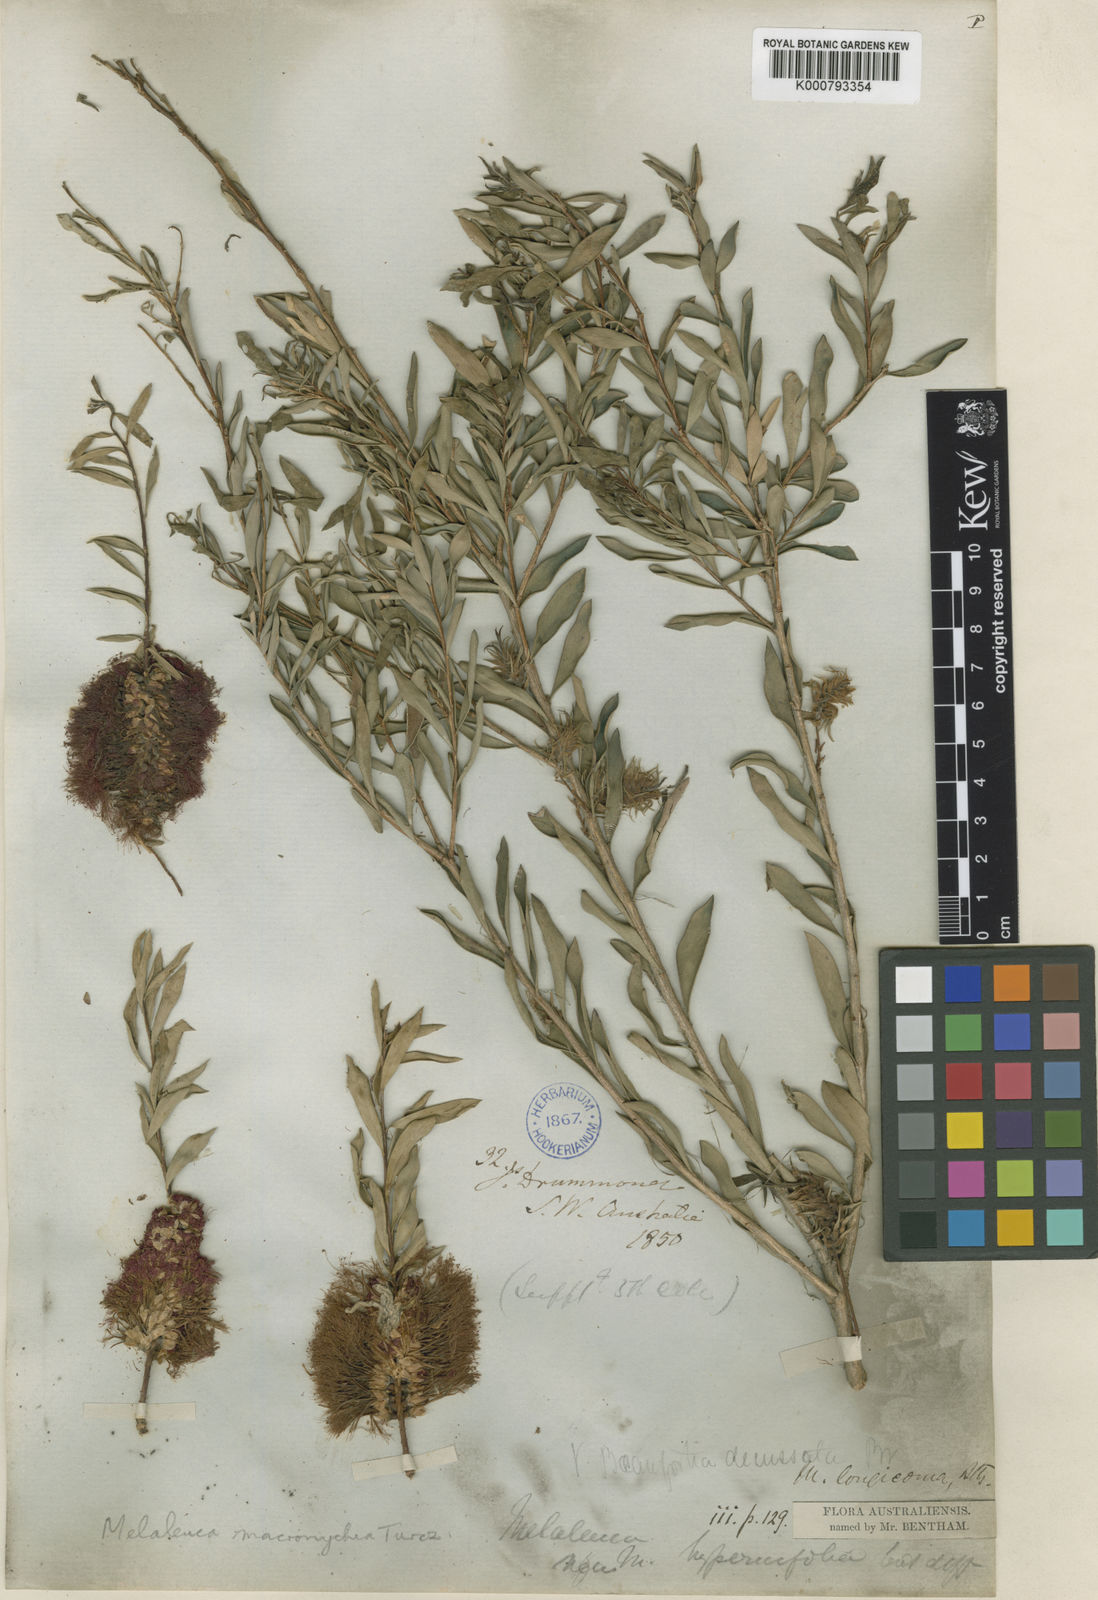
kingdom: Plantae
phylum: Tracheophyta
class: Magnoliopsida
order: Myrtales
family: Myrtaceae
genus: Melaleuca
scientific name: Melaleuca macronychia
